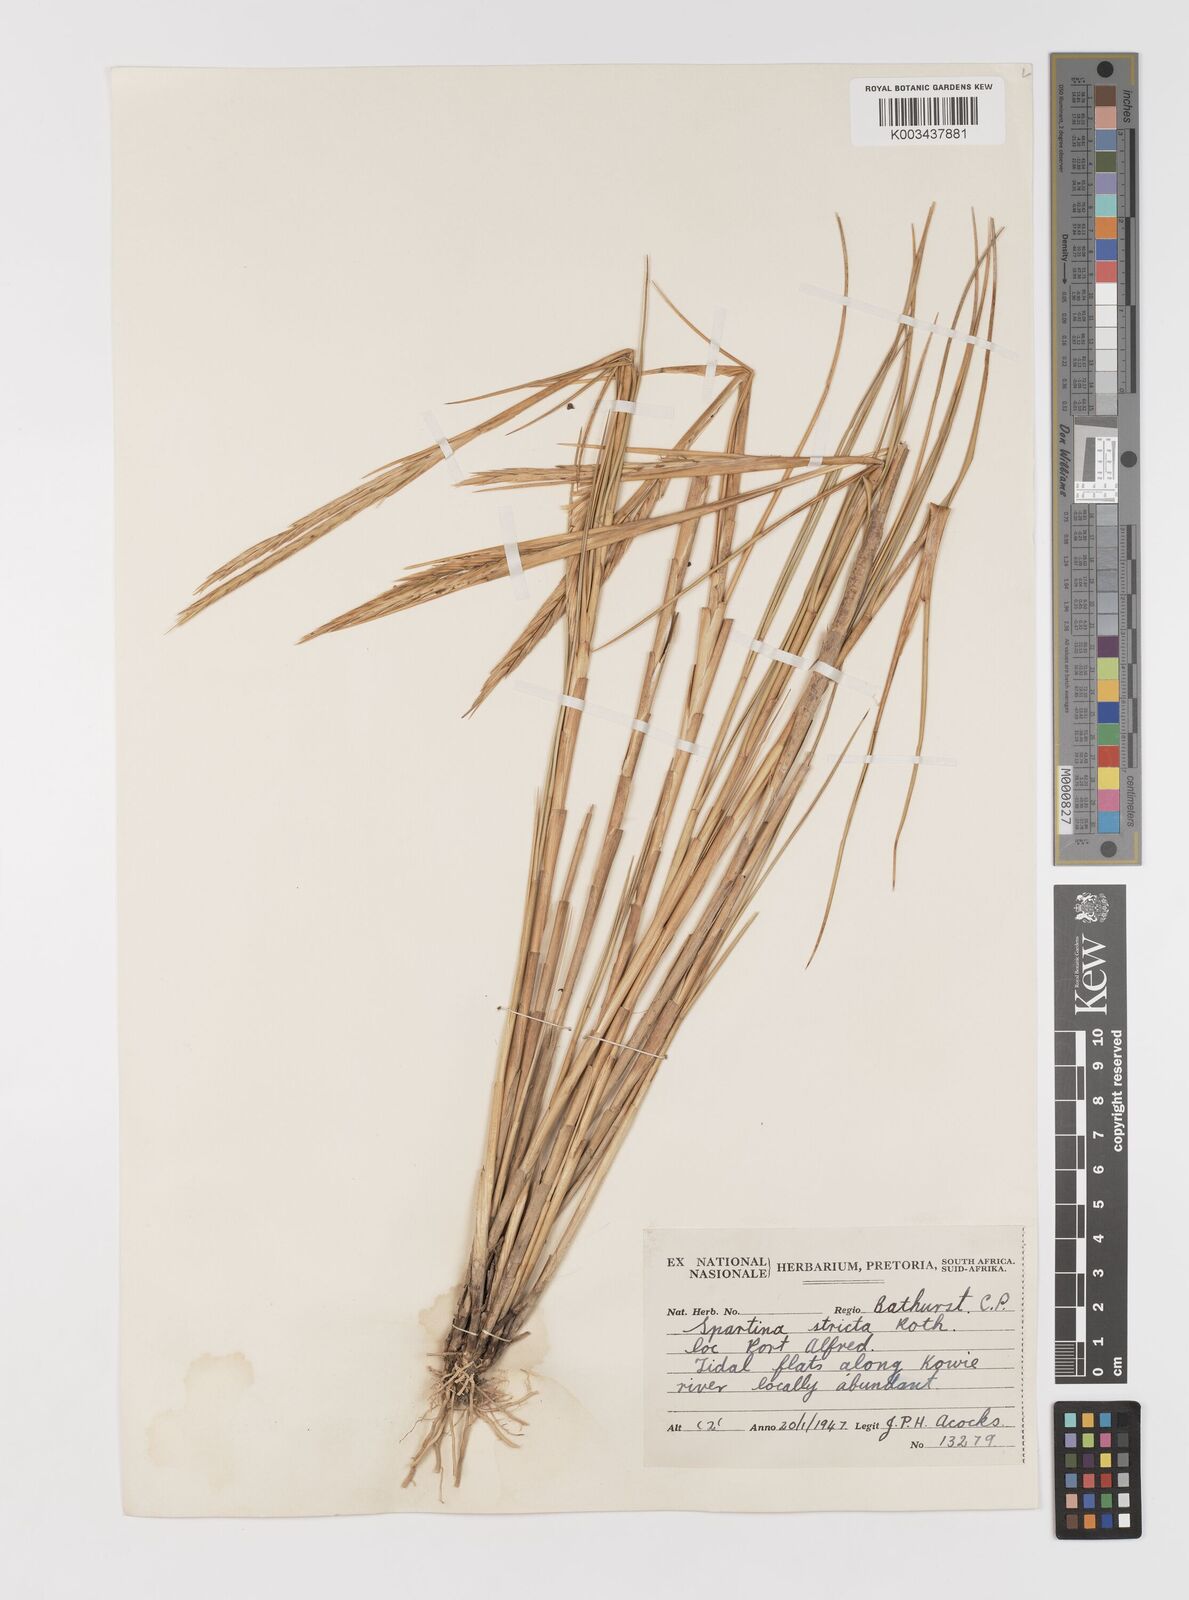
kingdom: Plantae
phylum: Tracheophyta
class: Liliopsida
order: Poales
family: Poaceae
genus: Sporobolus
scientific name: Sporobolus maritimus
